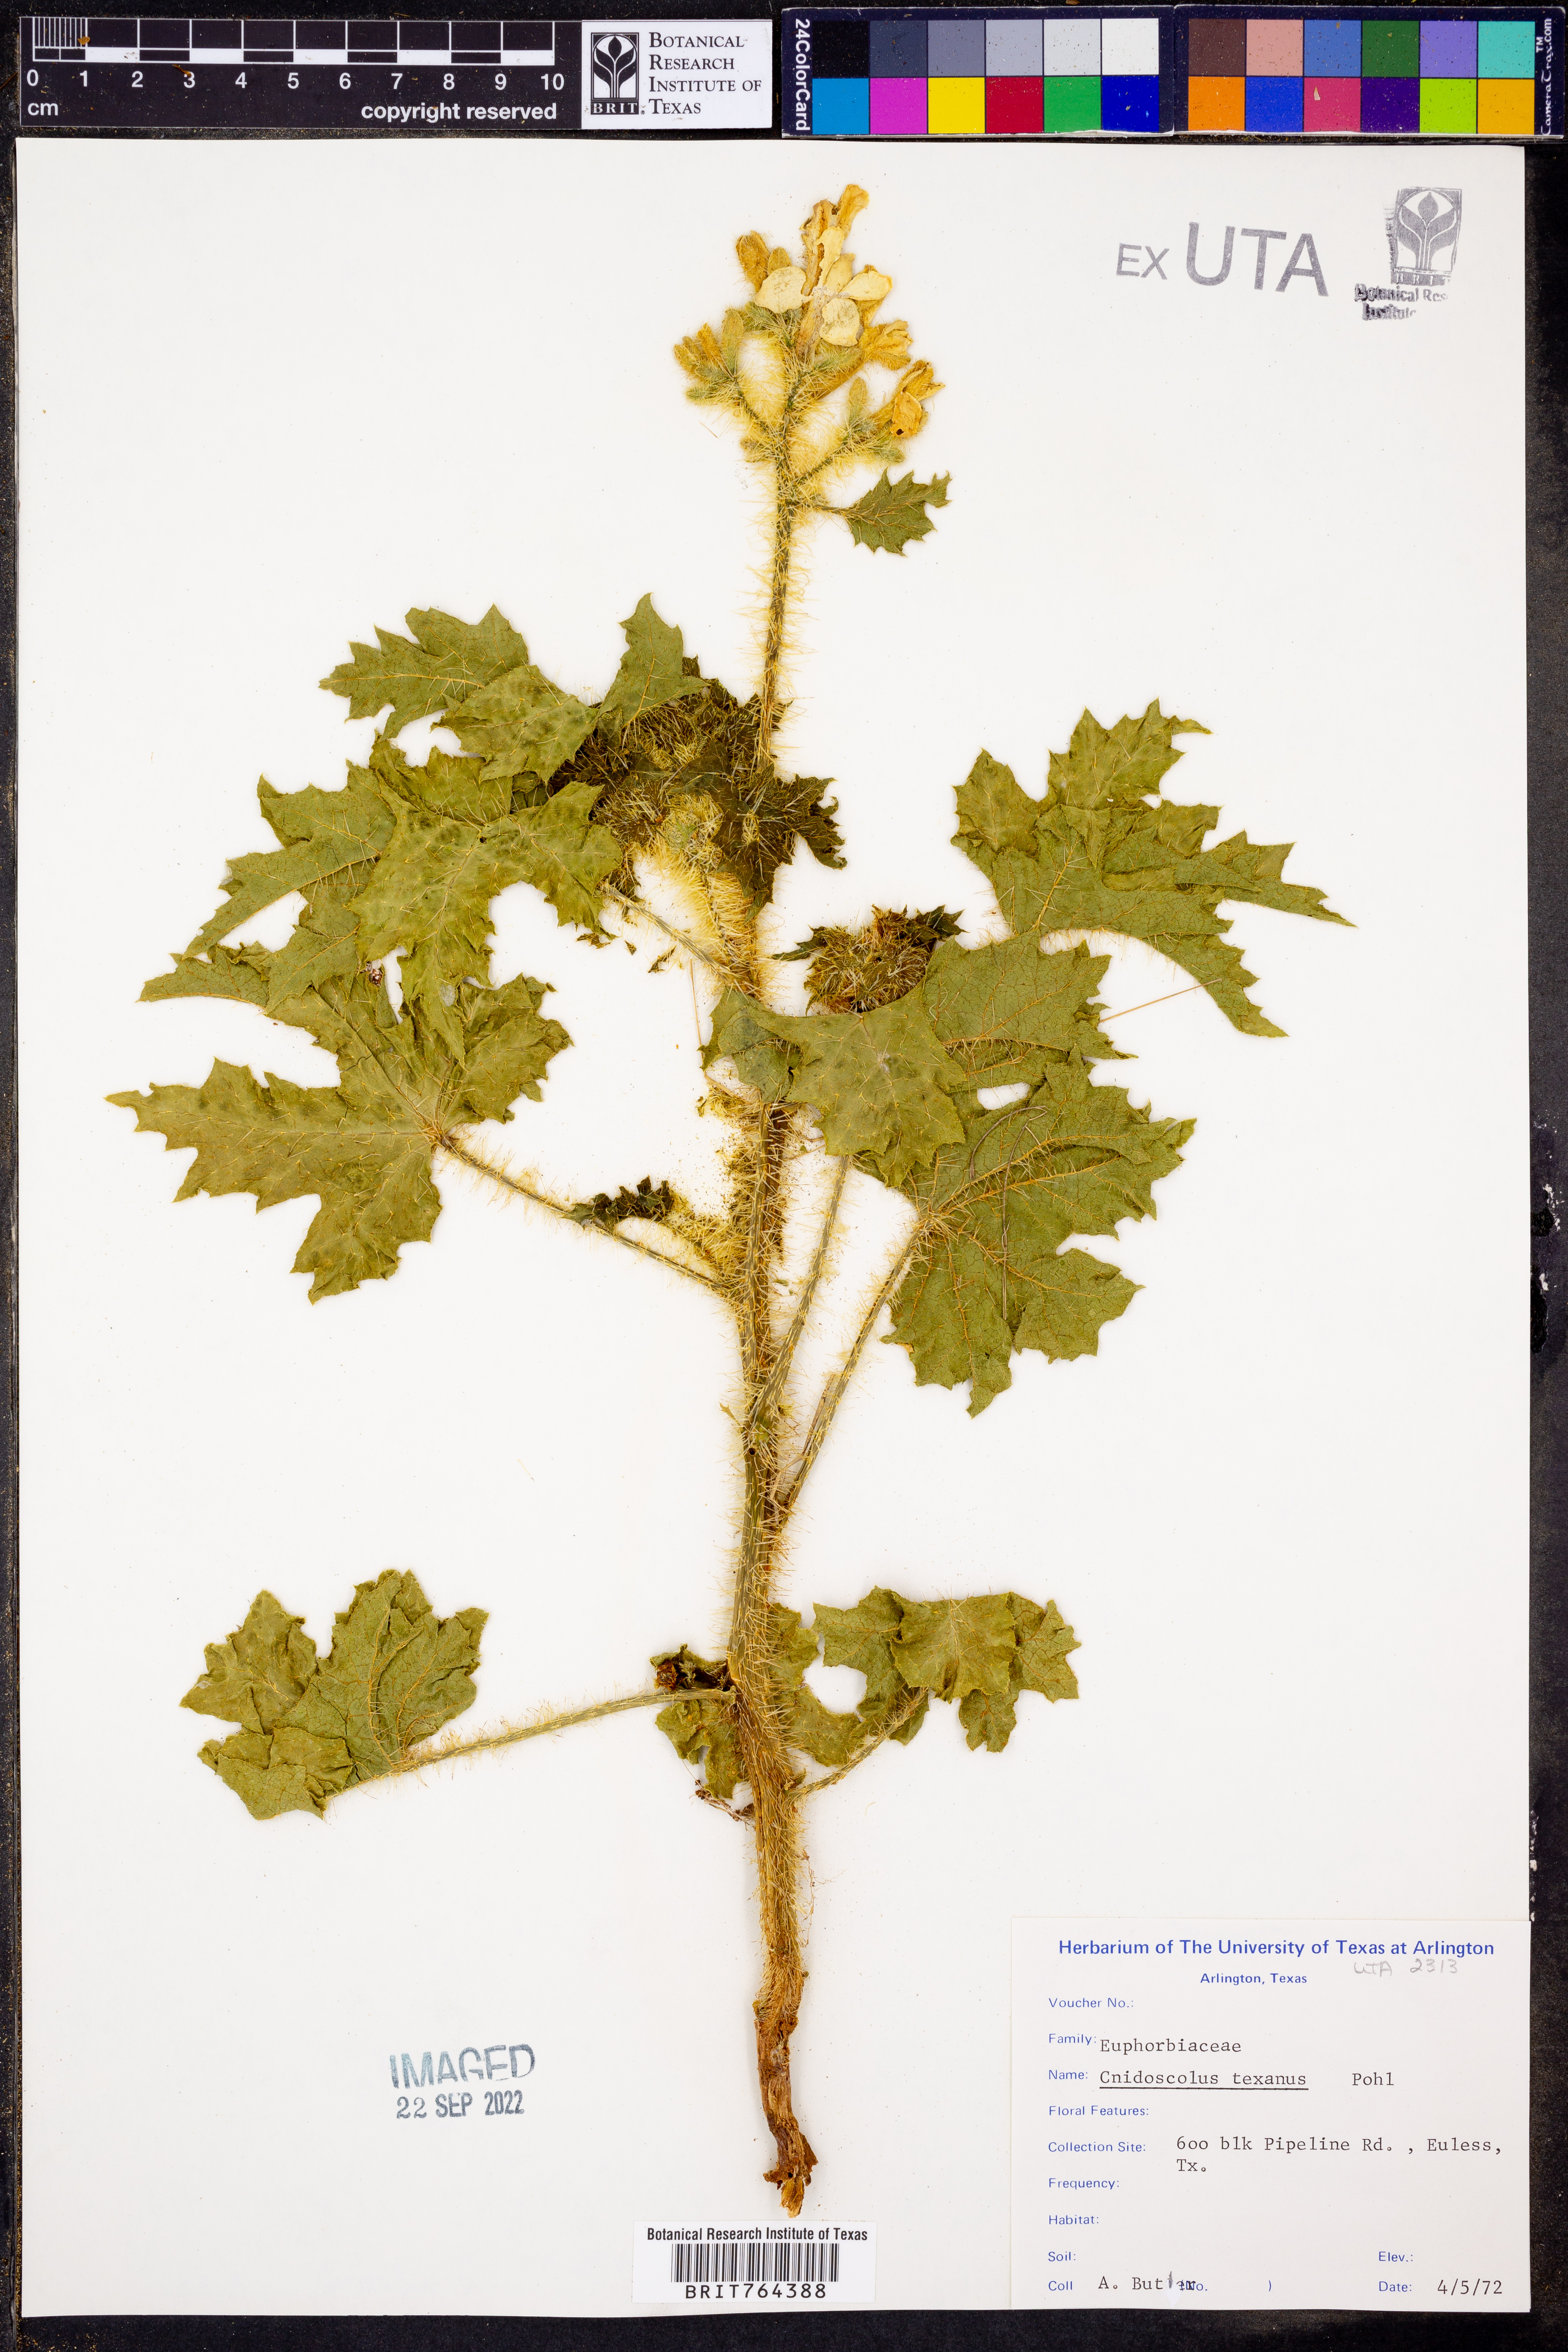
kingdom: Plantae
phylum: Tracheophyta
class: Magnoliopsida
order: Malpighiales
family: Euphorbiaceae
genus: Cnidoscolus
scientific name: Cnidoscolus texanus
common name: Texas bull-nettle
